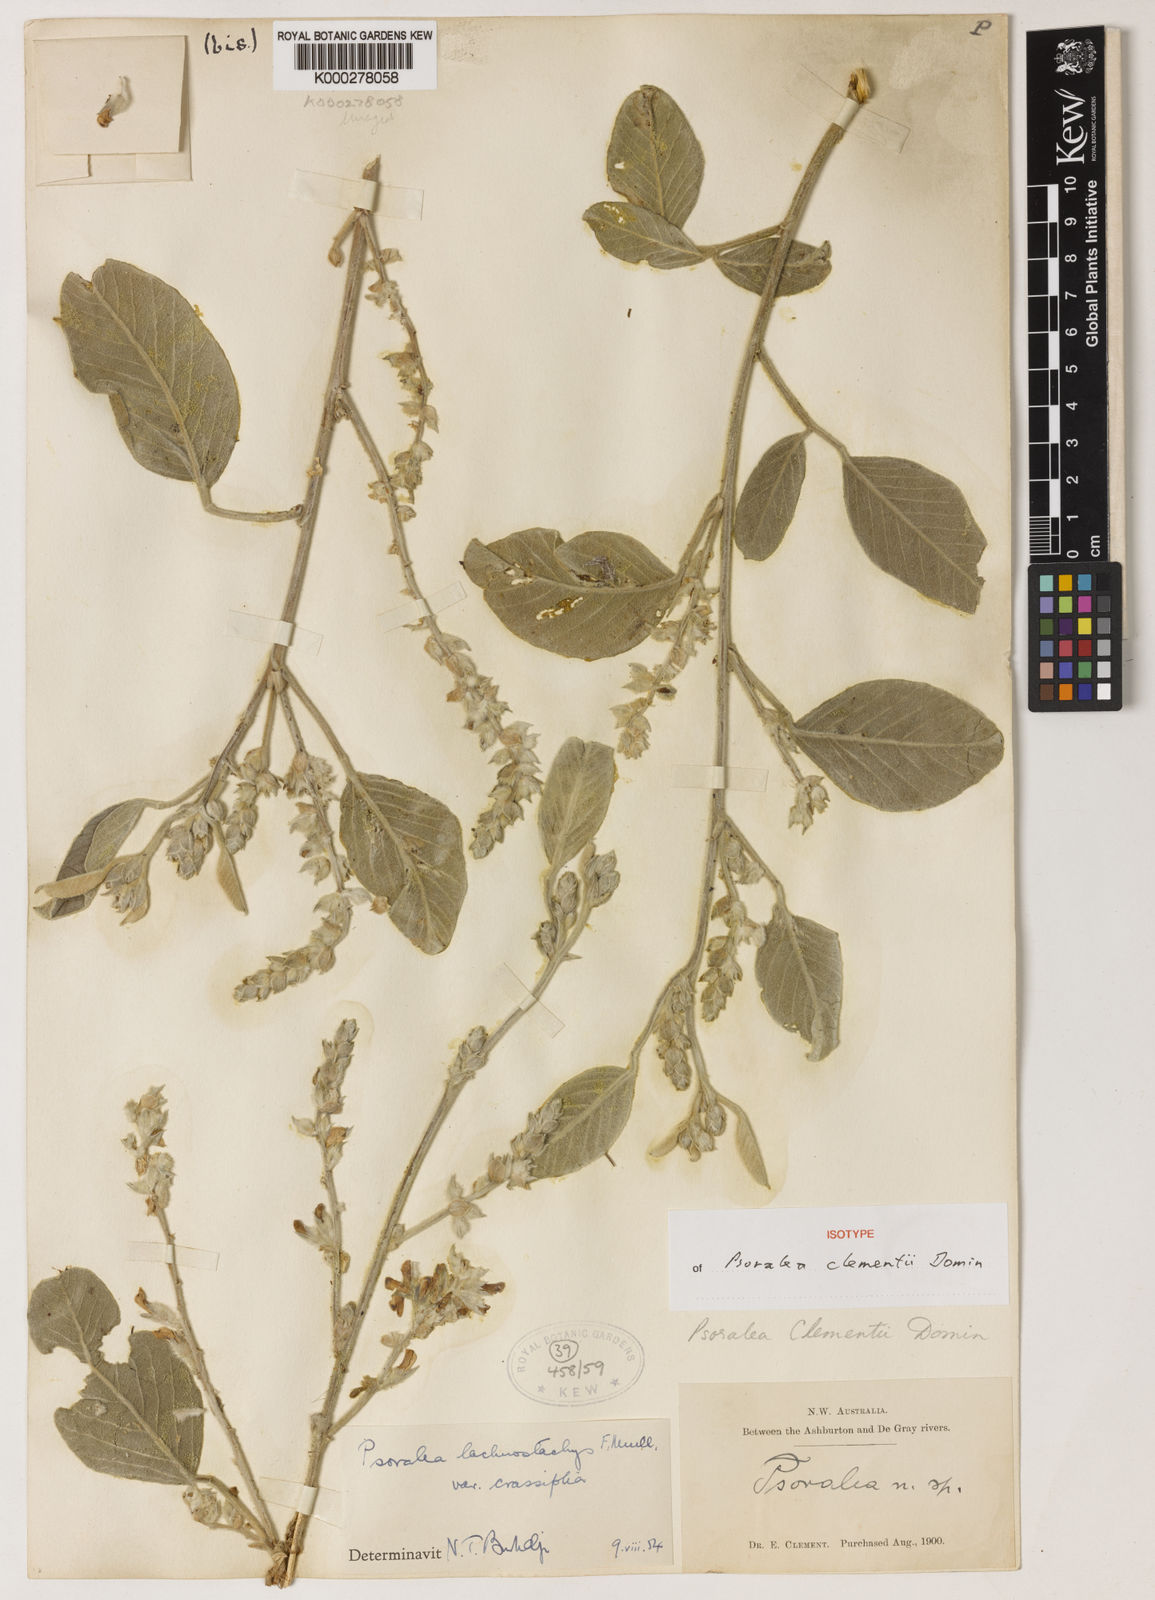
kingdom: Plantae
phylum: Tracheophyta
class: Magnoliopsida
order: Fabales
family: Fabaceae
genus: Cullen
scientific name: Cullen lachnostachys
